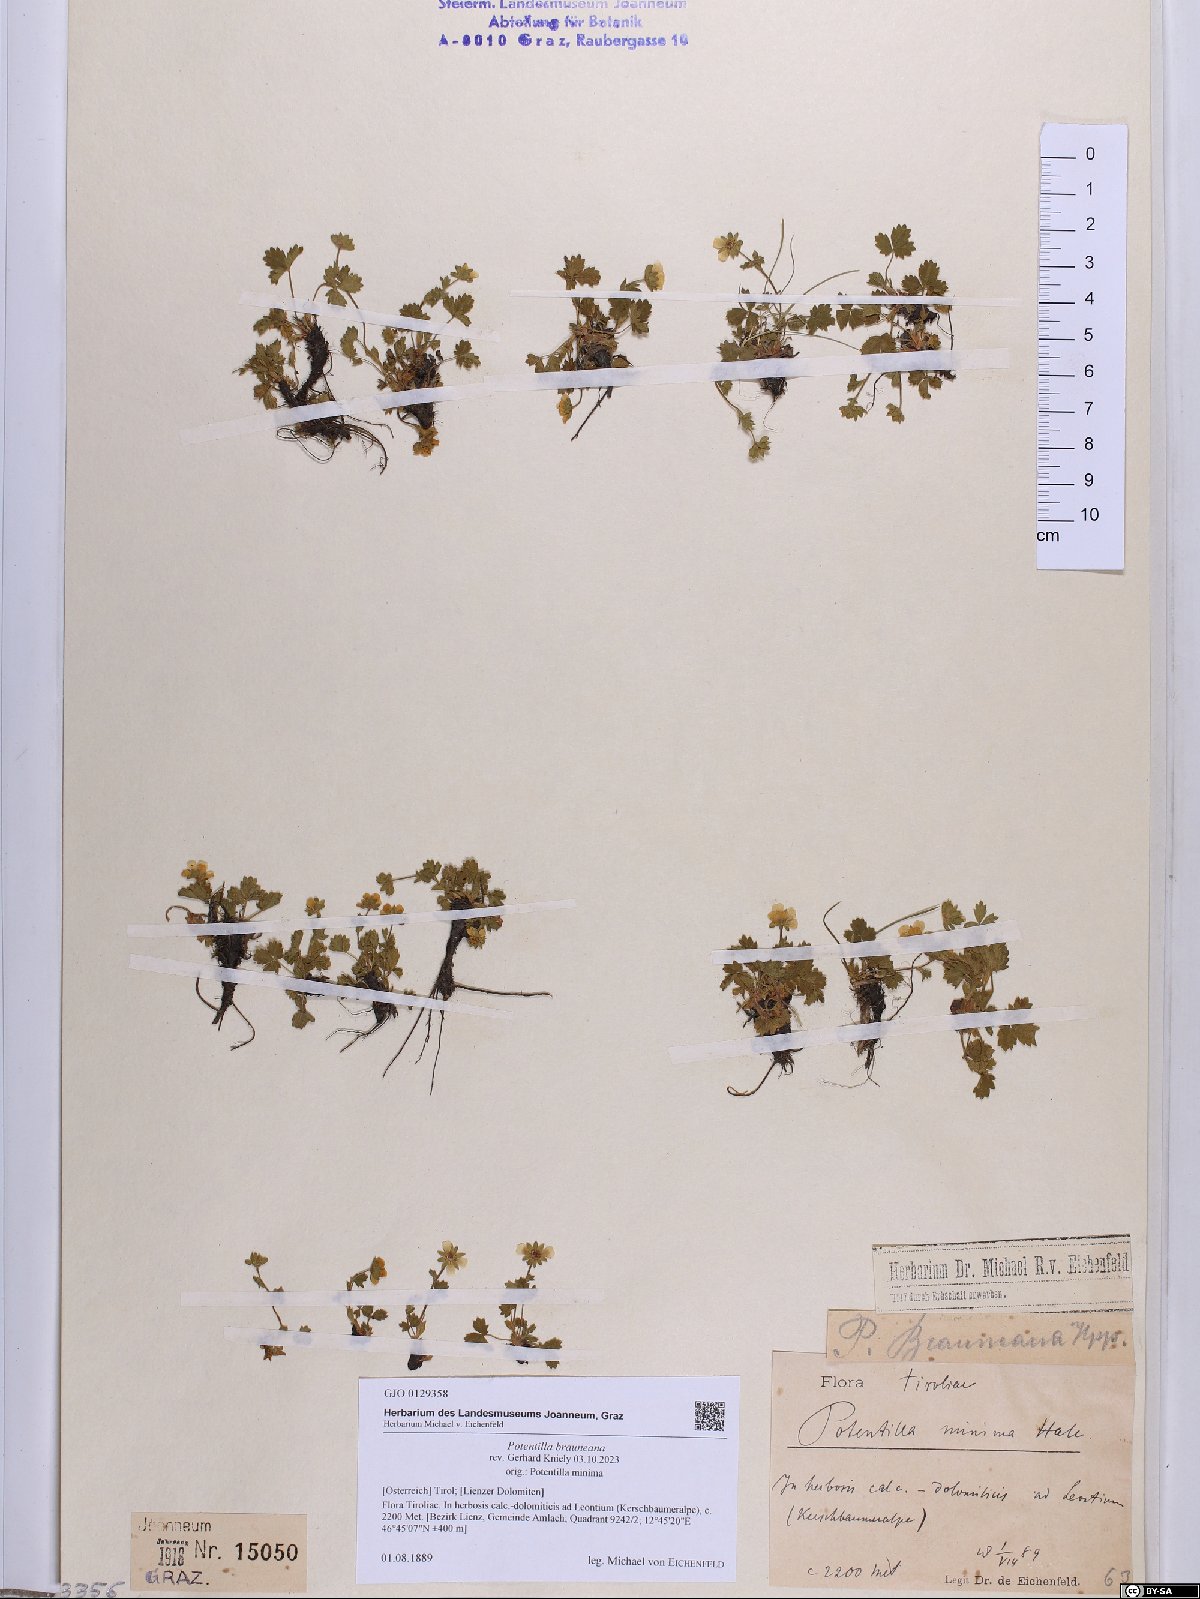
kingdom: Plantae
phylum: Tracheophyta
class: Magnoliopsida
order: Rosales
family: Rosaceae
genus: Potentilla
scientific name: Potentilla brauneana
